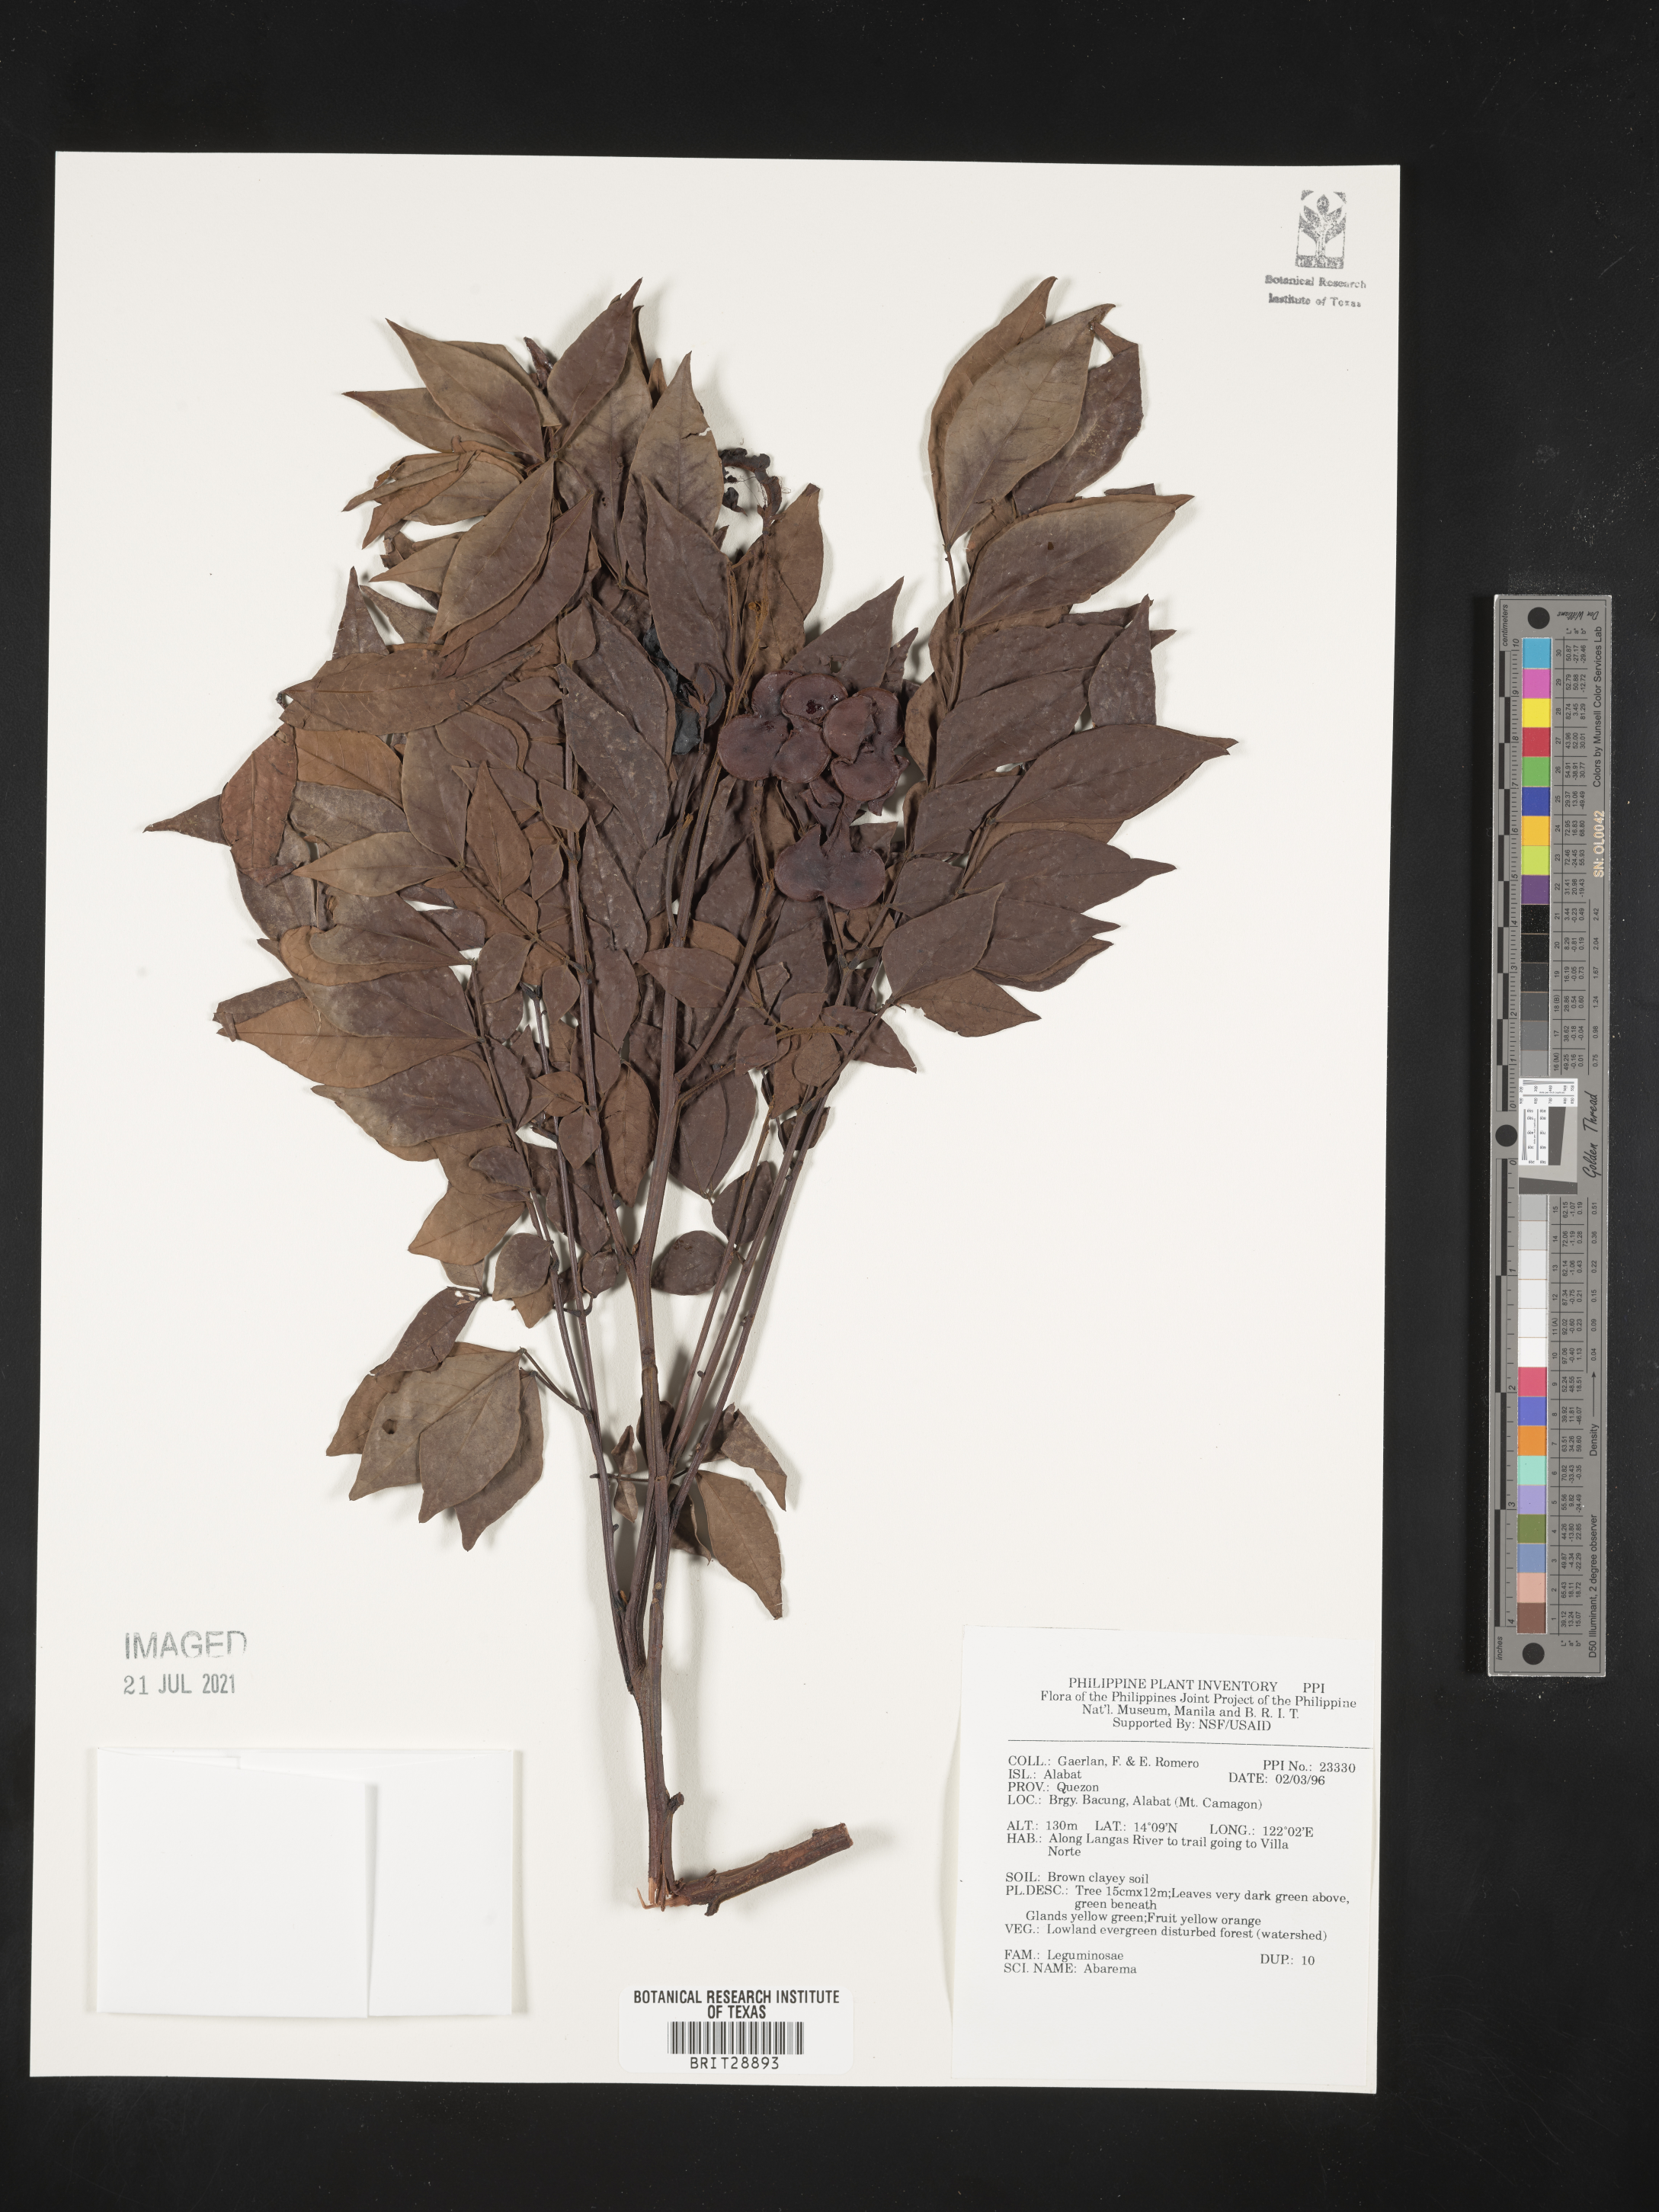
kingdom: Plantae
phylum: Tracheophyta
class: Magnoliopsida
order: Fabales
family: Fabaceae
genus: Abarema
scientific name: Abarema
